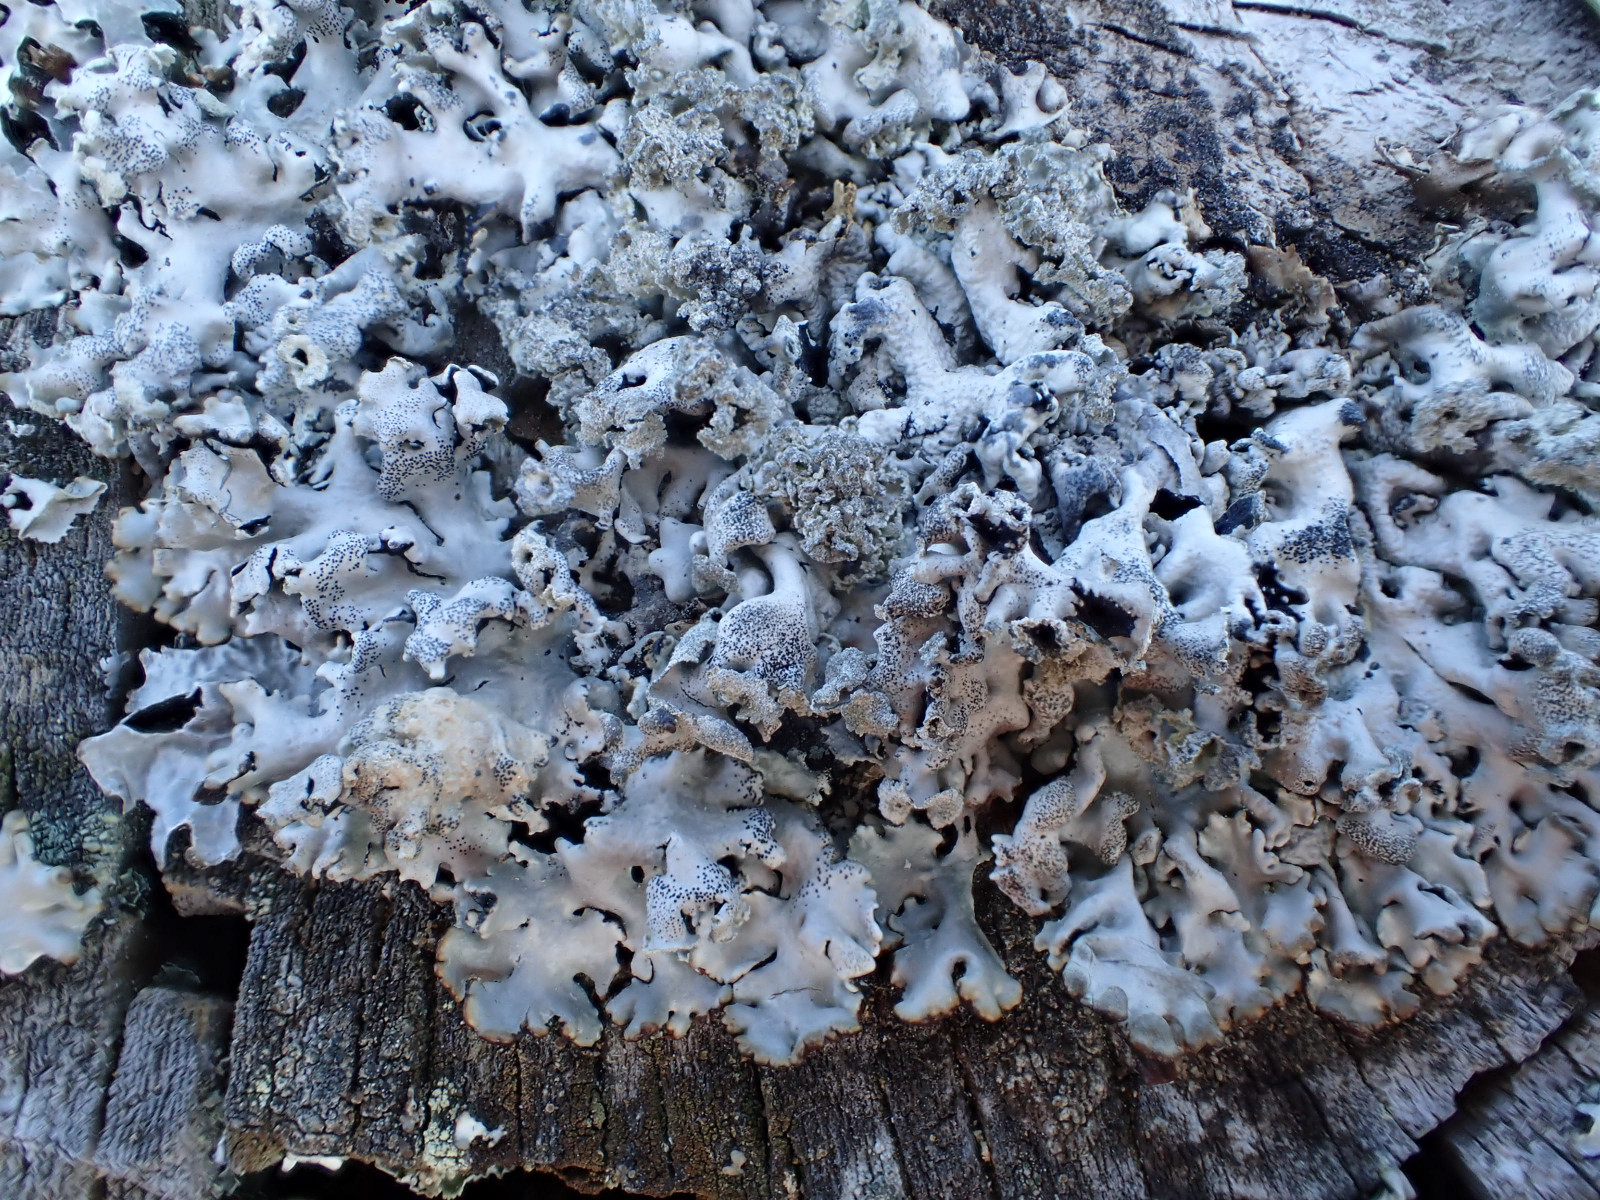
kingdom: Fungi
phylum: Ascomycota
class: Lecanoromycetes
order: Lecanorales
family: Parmeliaceae
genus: Hypogymnia
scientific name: Hypogymnia physodes
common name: almindelig kvistlav
